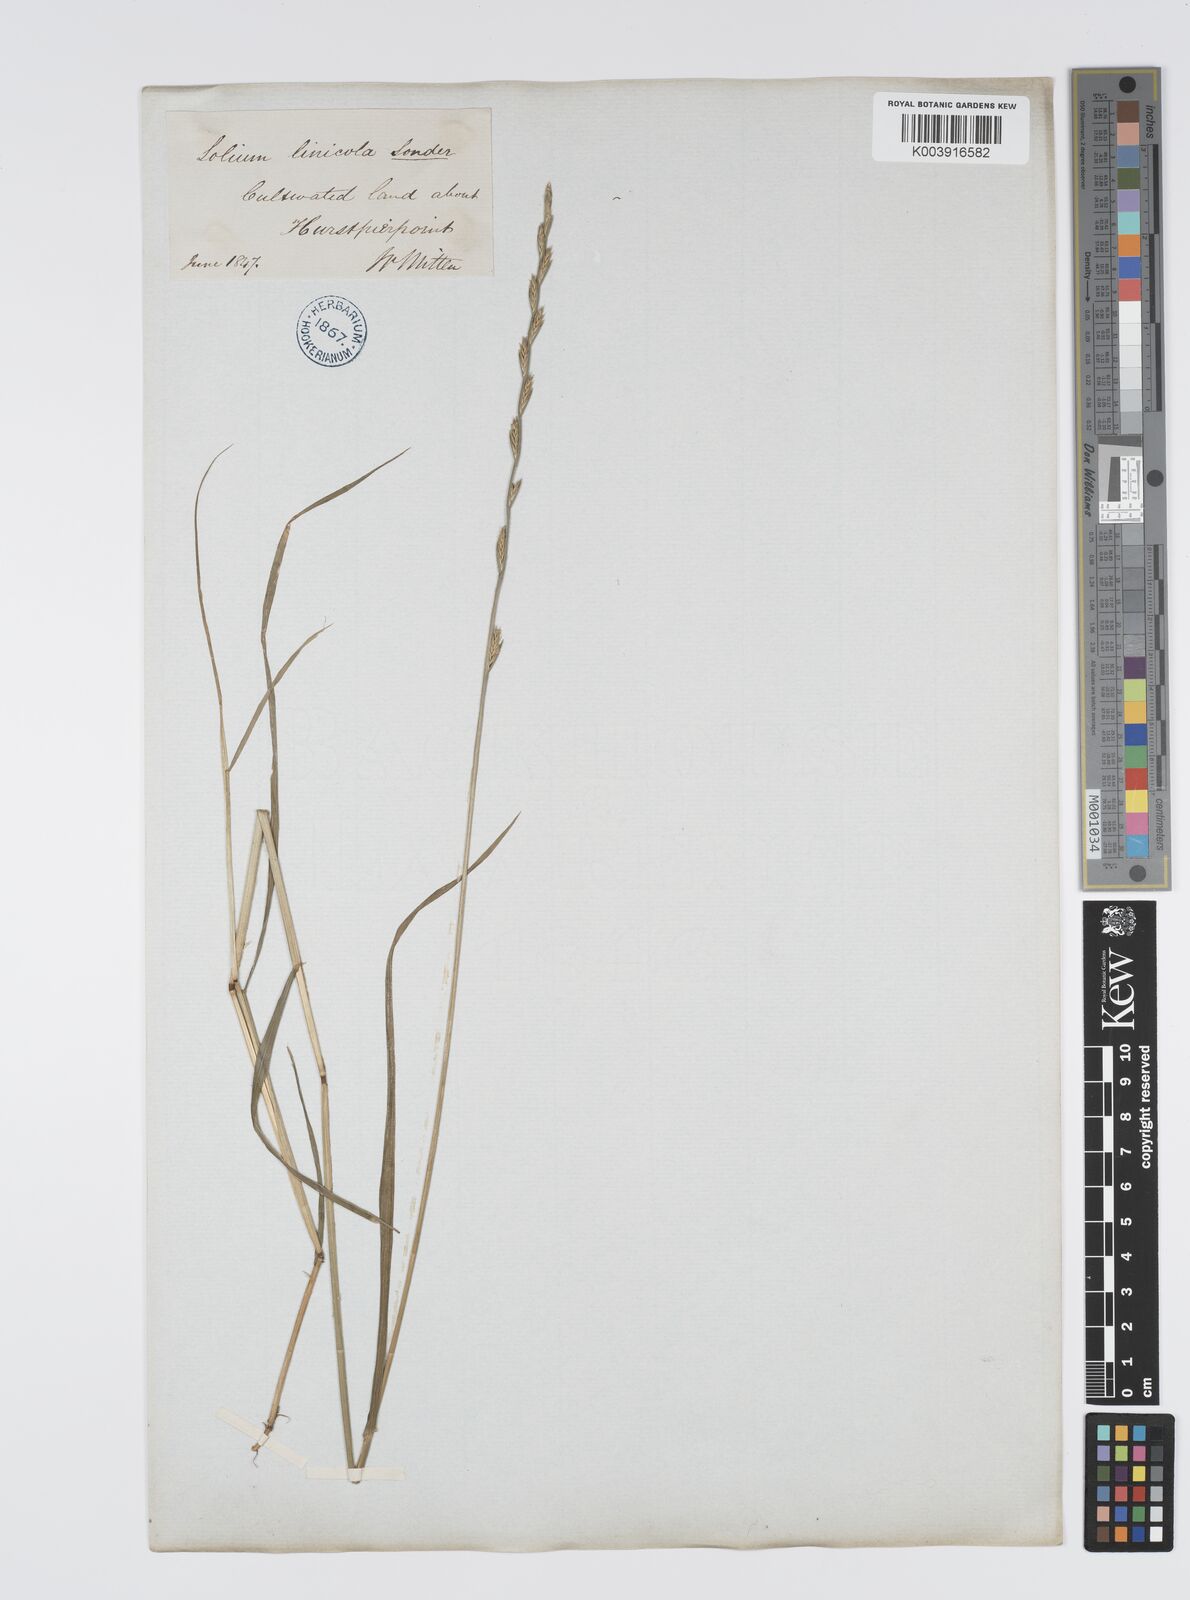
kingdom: Plantae
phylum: Tracheophyta
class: Liliopsida
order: Poales
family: Poaceae
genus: Lolium
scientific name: Lolium remotum
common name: Flaxfield rye-grass
